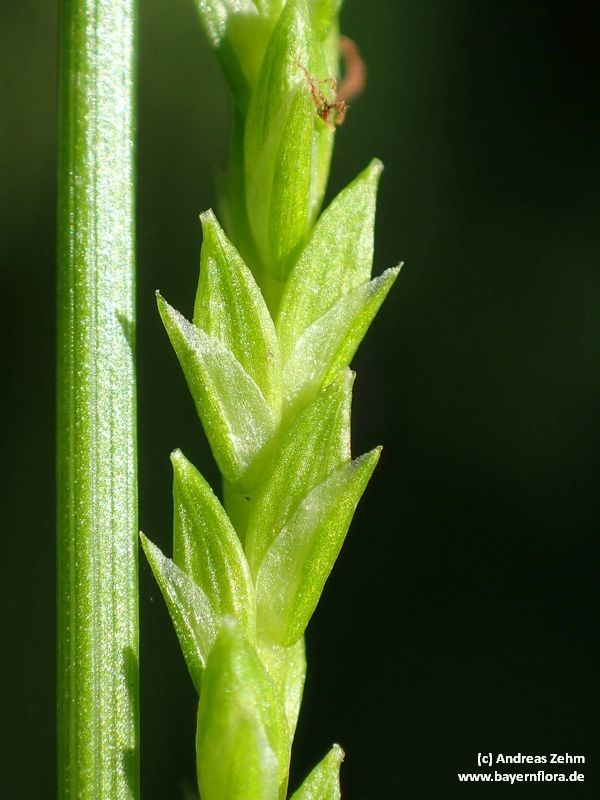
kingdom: Plantae
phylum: Tracheophyta
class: Liliopsida
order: Poales
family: Cyperaceae
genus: Carex
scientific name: Carex strigosa
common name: Thin-spiked wood-sedge
